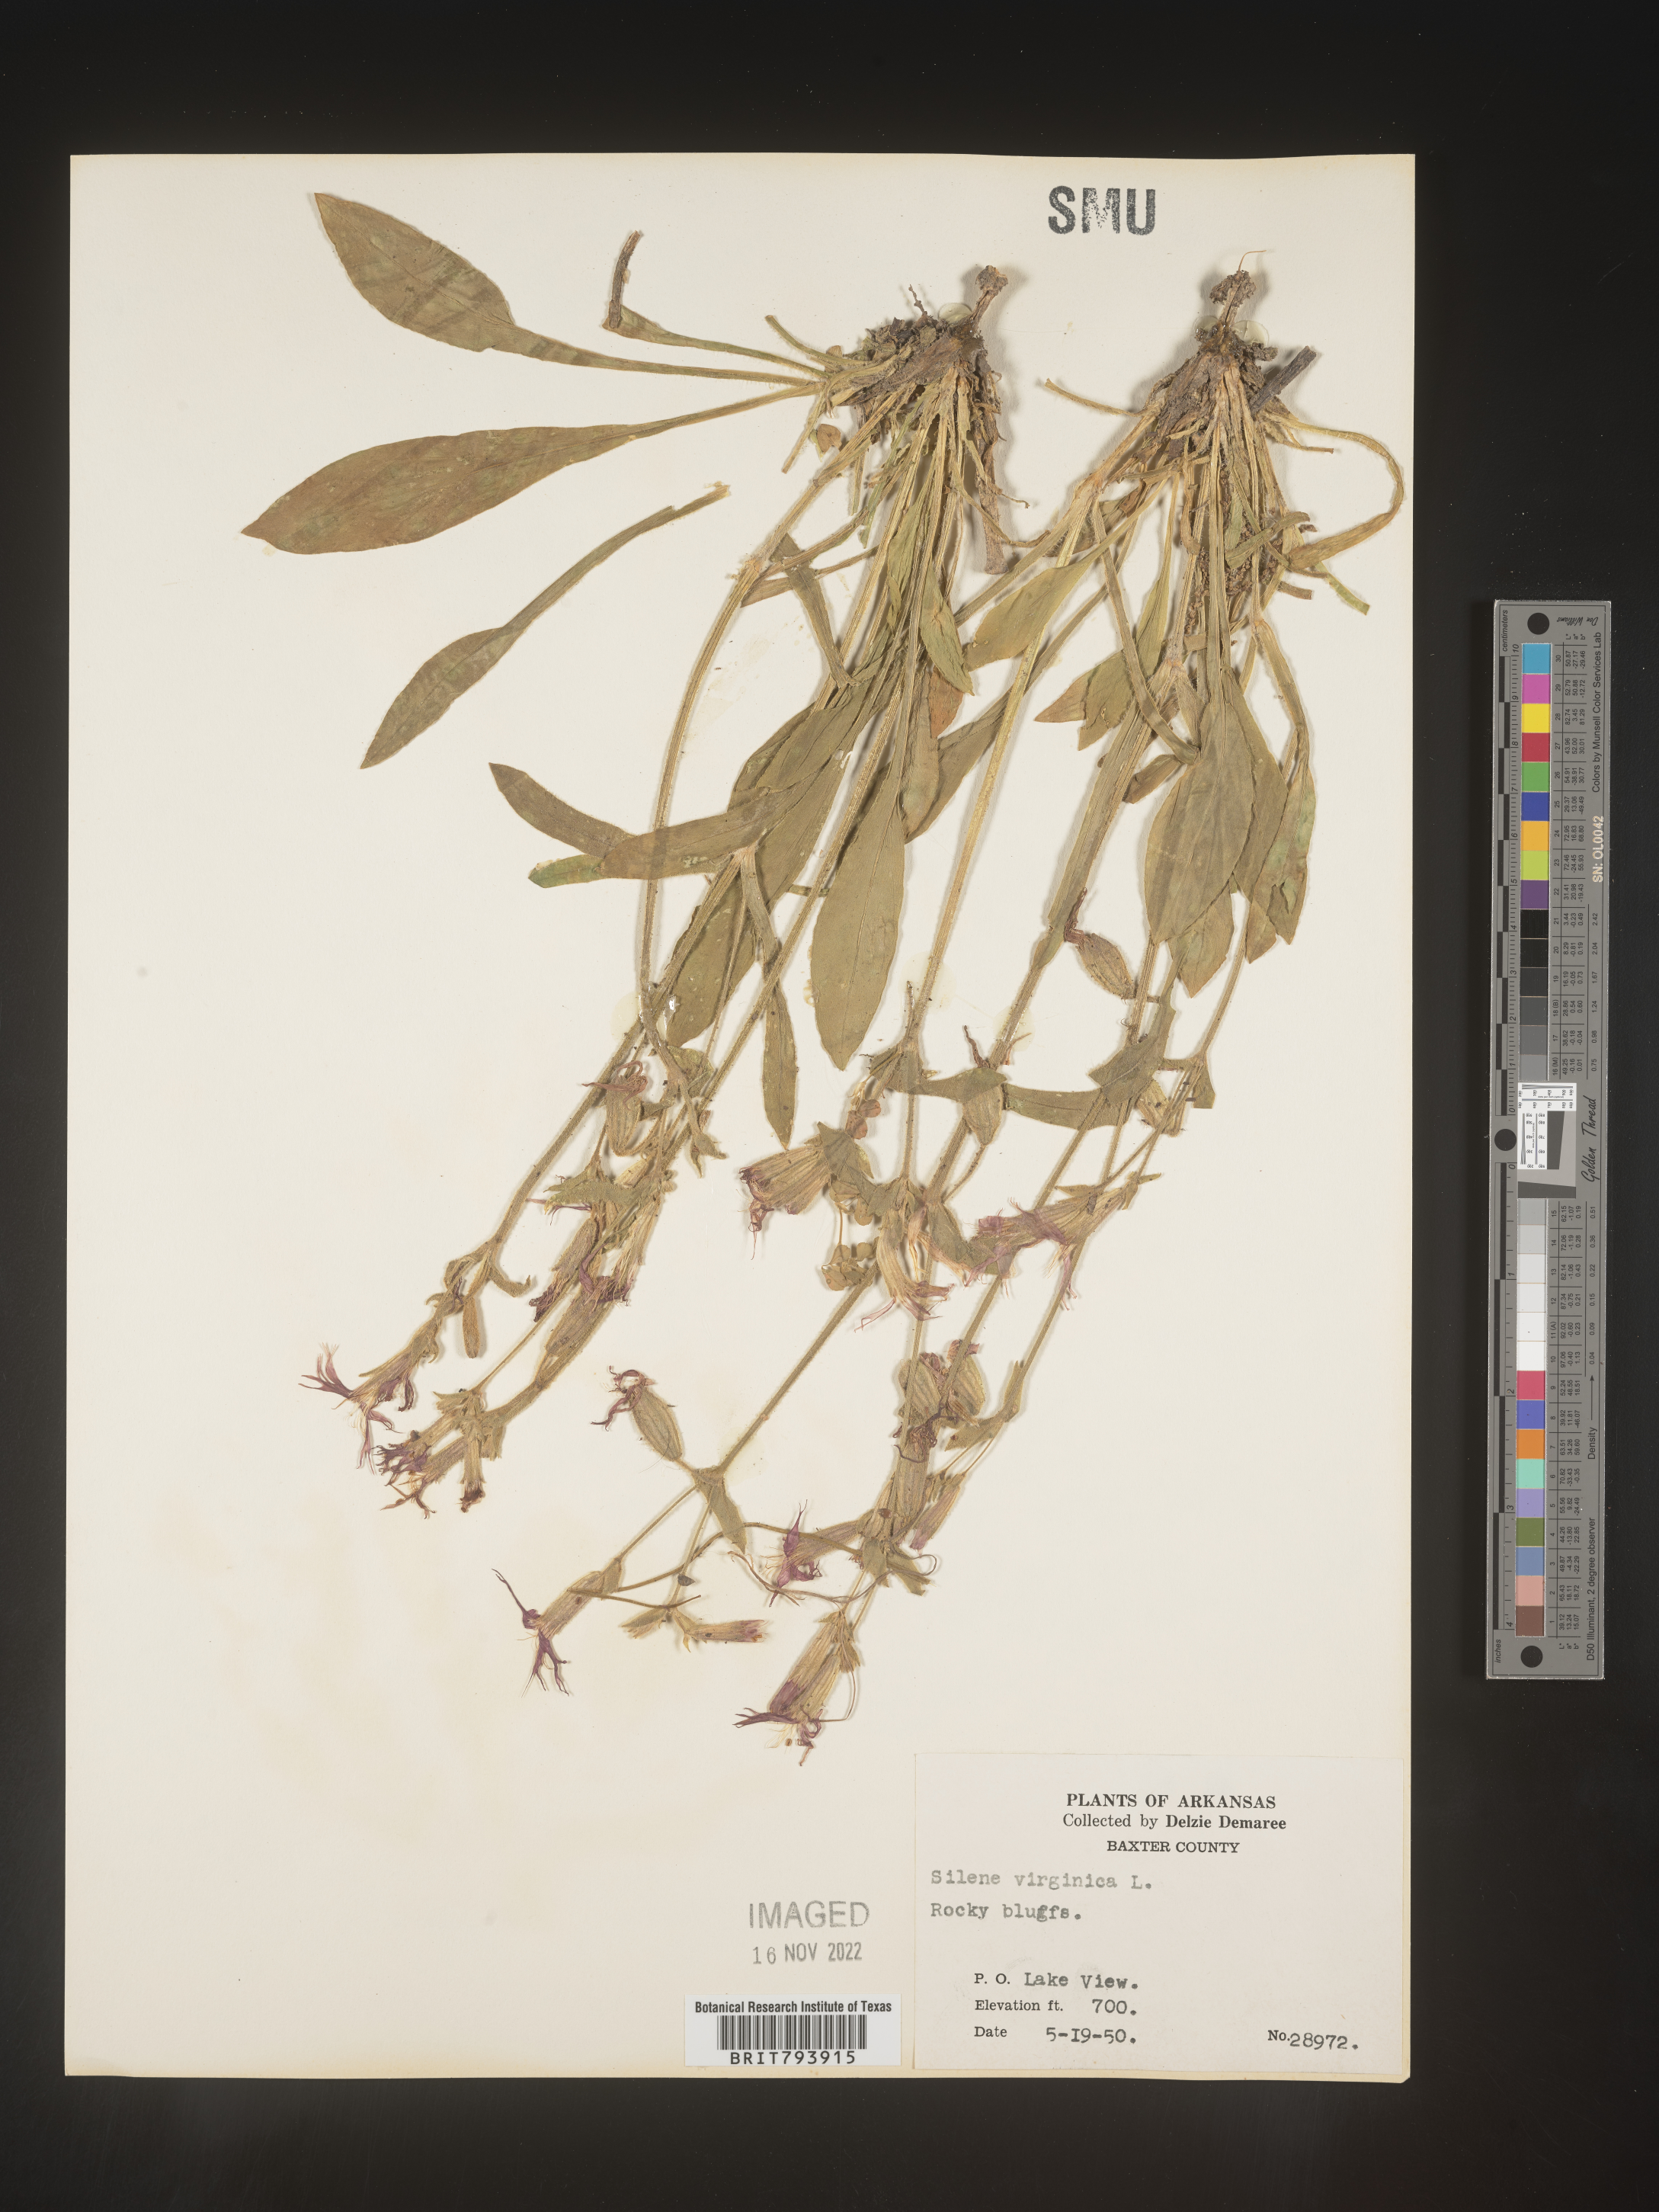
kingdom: Plantae
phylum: Tracheophyta
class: Magnoliopsida
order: Caryophyllales
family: Caryophyllaceae
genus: Silene
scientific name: Silene virginica
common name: Fire-pink
